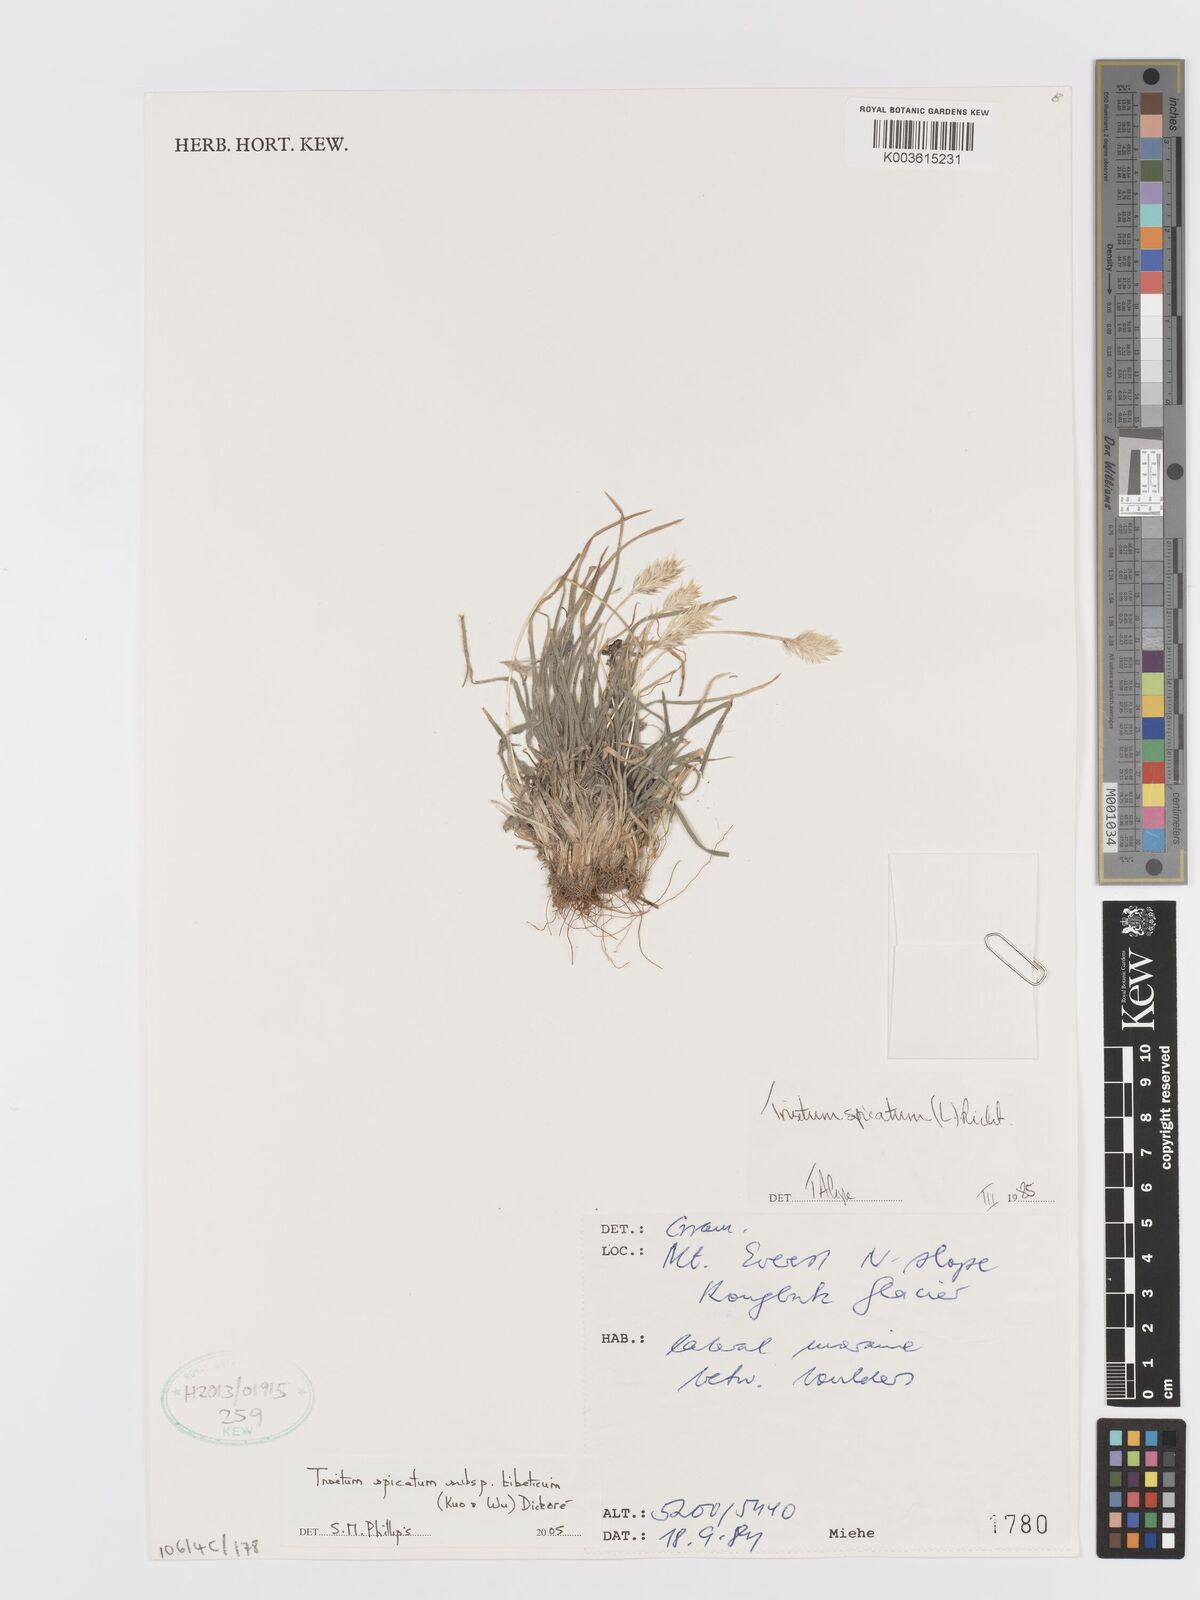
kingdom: Plantae
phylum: Tracheophyta
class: Liliopsida
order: Poales
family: Poaceae
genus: Koeleria
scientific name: Koeleria spicata
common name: Mountain trisetum
